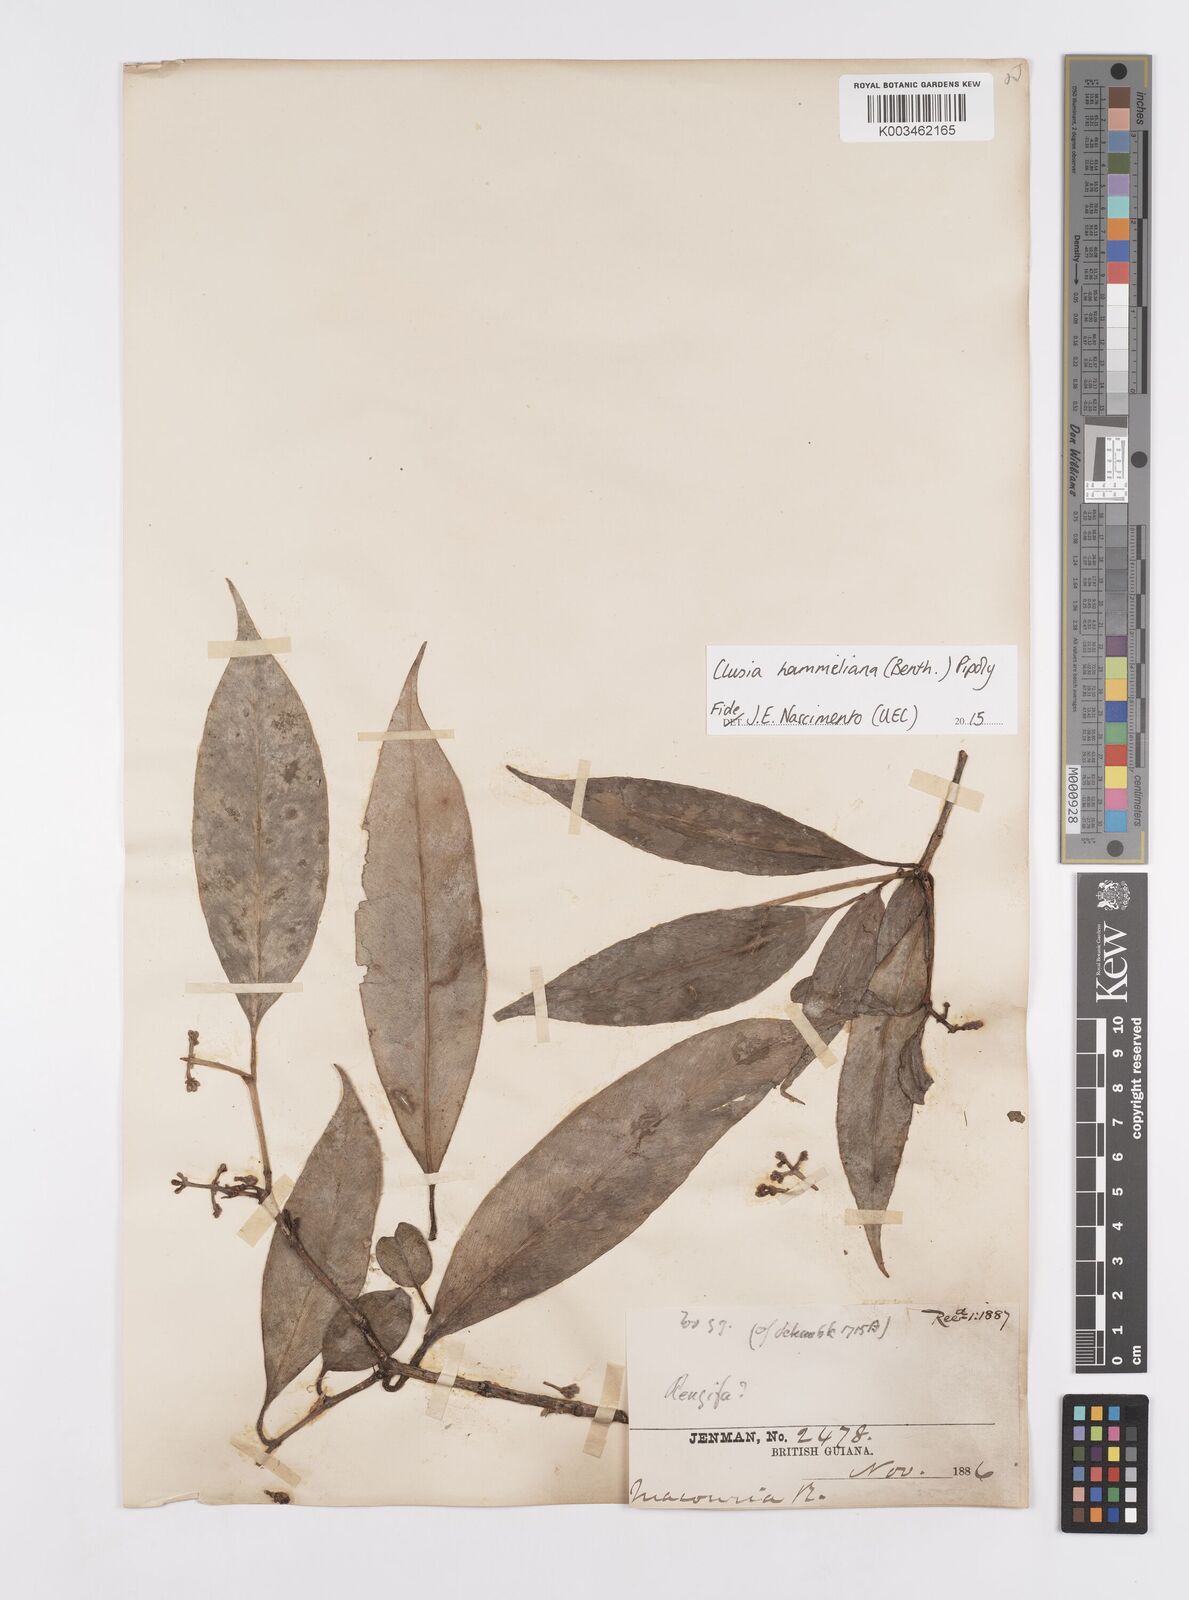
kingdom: Plantae
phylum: Tracheophyta
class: Magnoliopsida
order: Malpighiales
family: Clusiaceae
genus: Clusia
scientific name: Clusia hammeliana
